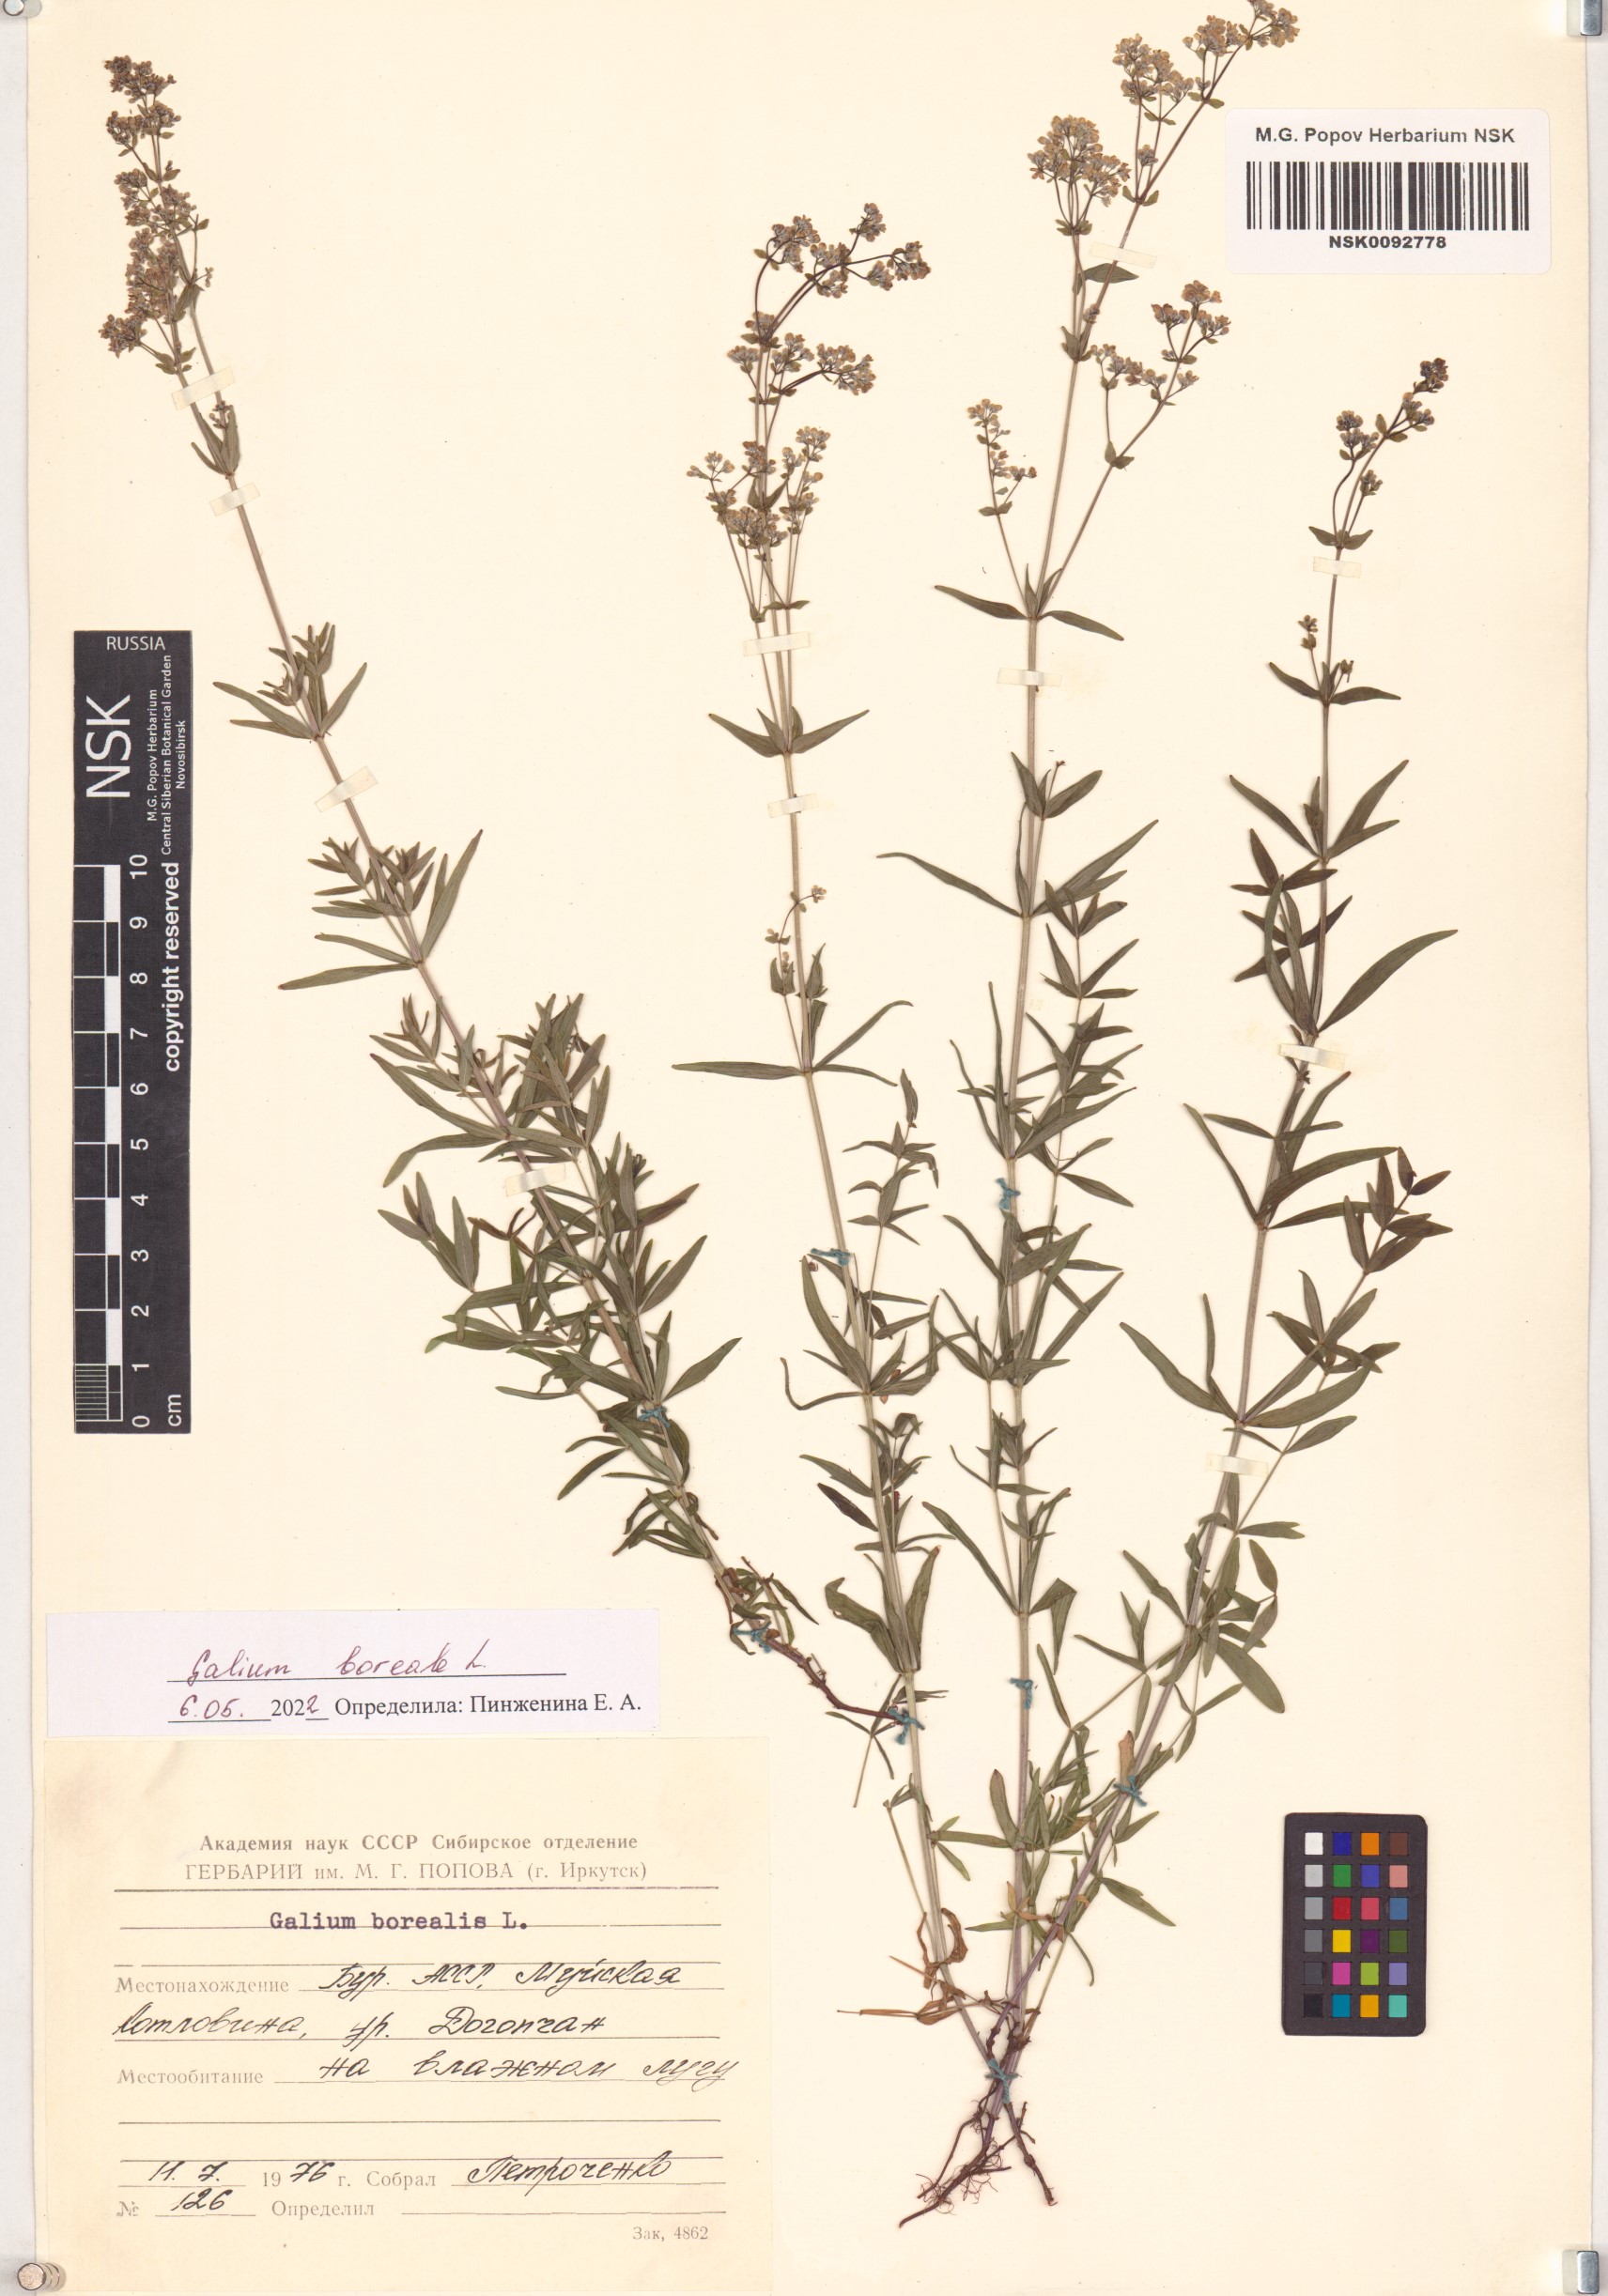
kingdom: Plantae
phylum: Tracheophyta
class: Magnoliopsida
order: Gentianales
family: Rubiaceae
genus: Galium
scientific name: Galium boreale
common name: Northern bedstraw
